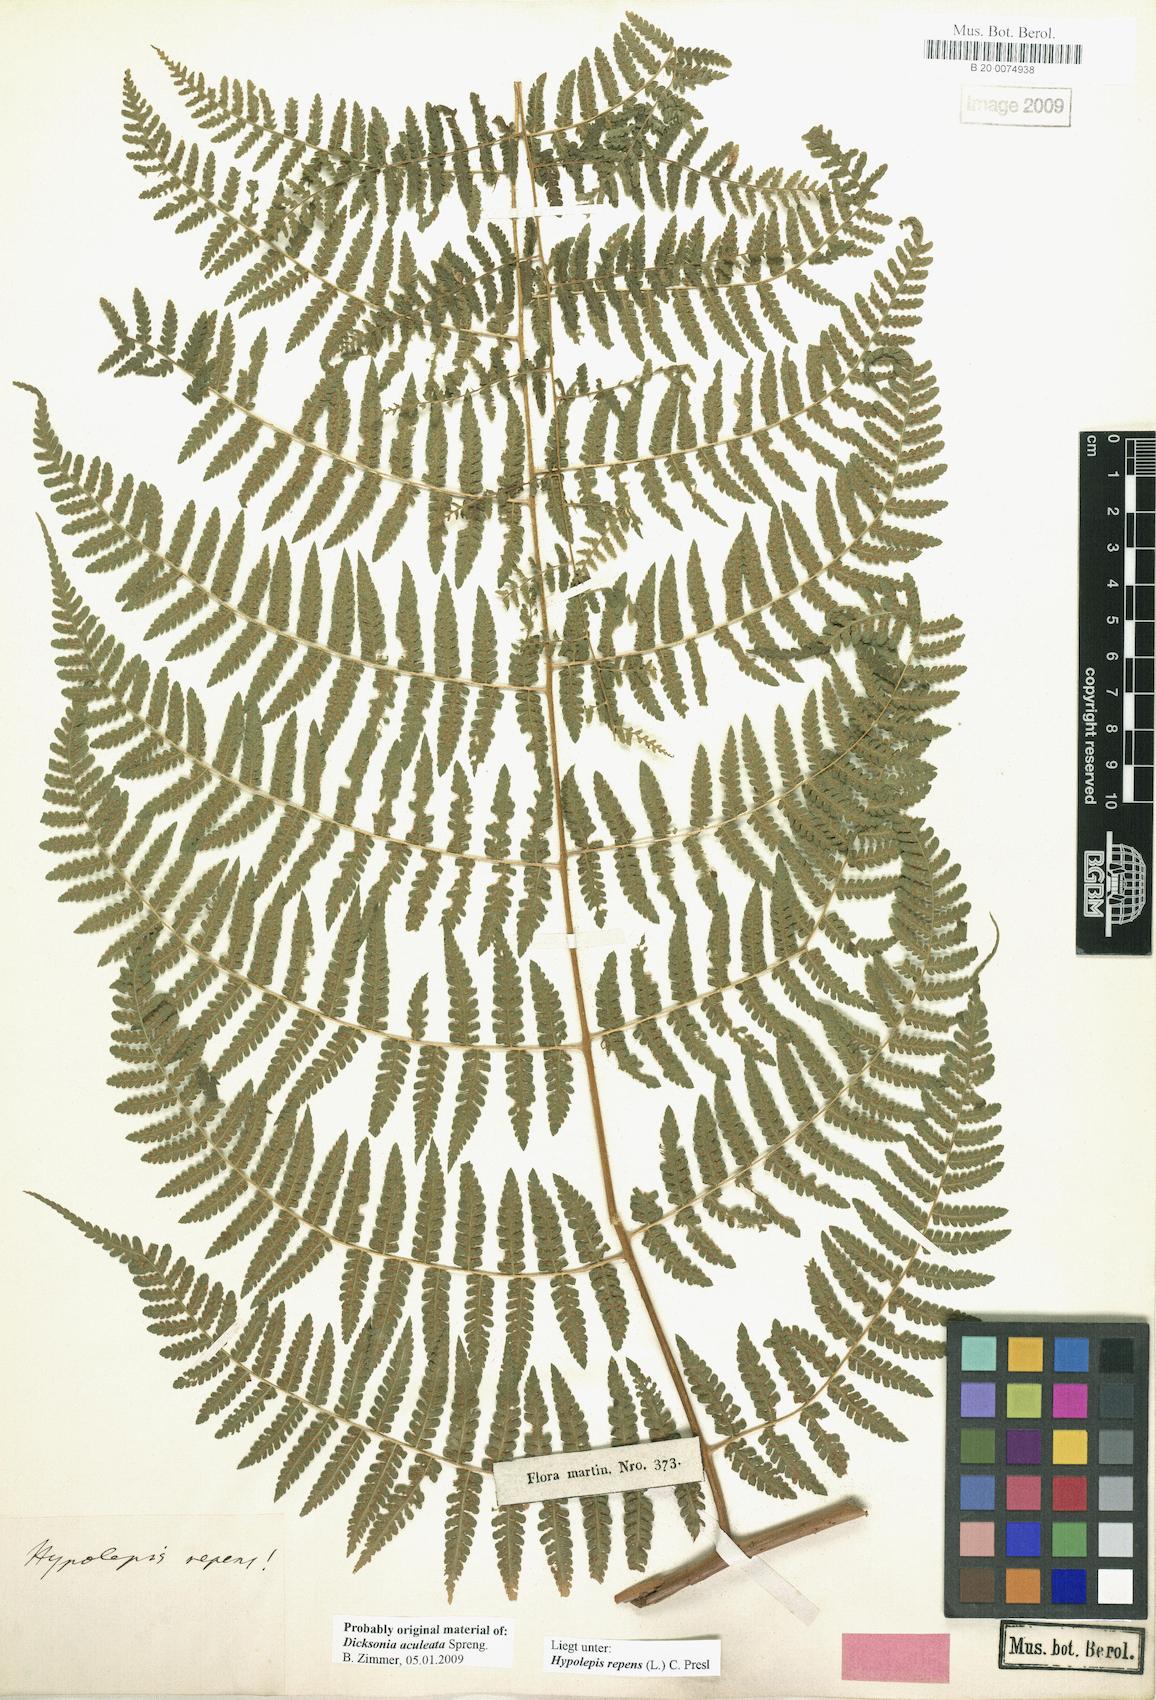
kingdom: Plantae
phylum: Tracheophyta
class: Polypodiopsida
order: Polypodiales
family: Dennstaedtiaceae
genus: Hypolepis
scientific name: Hypolepis repens
